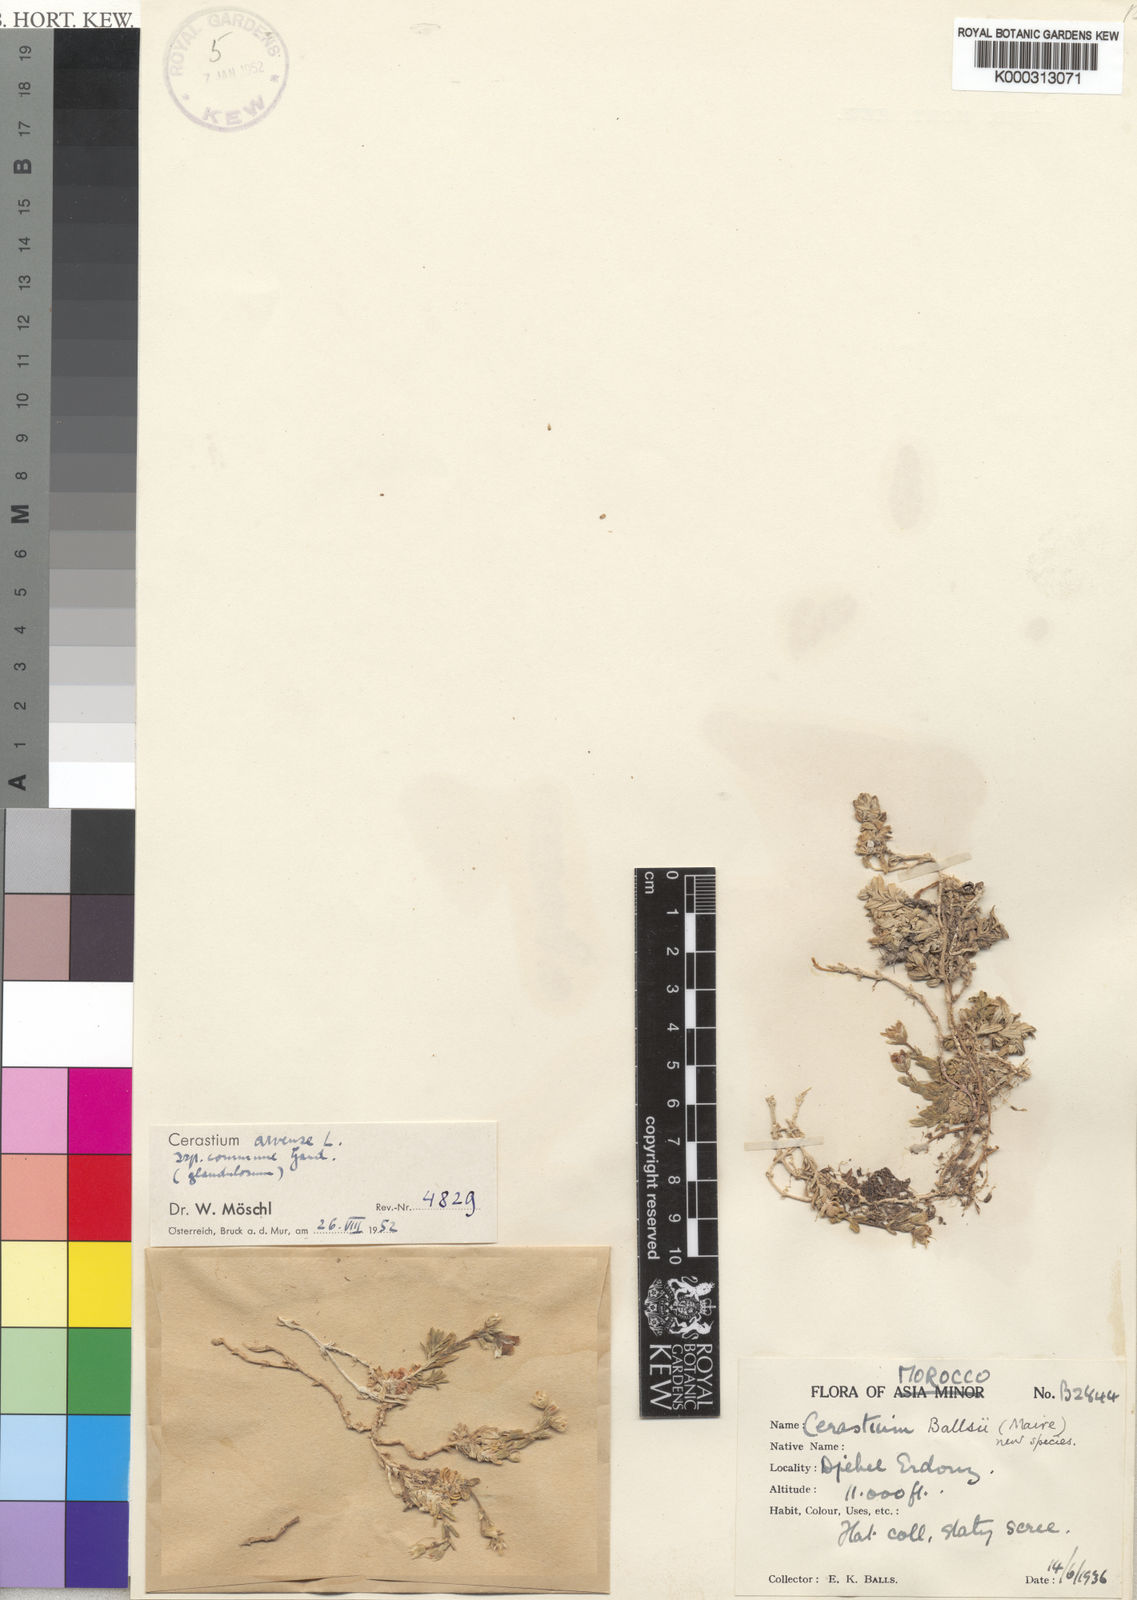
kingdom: Plantae
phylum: Tracheophyta
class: Magnoliopsida
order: Caryophyllales
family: Caryophyllaceae
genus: Cerastium
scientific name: Cerastium arvense
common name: Field mouse-ear
